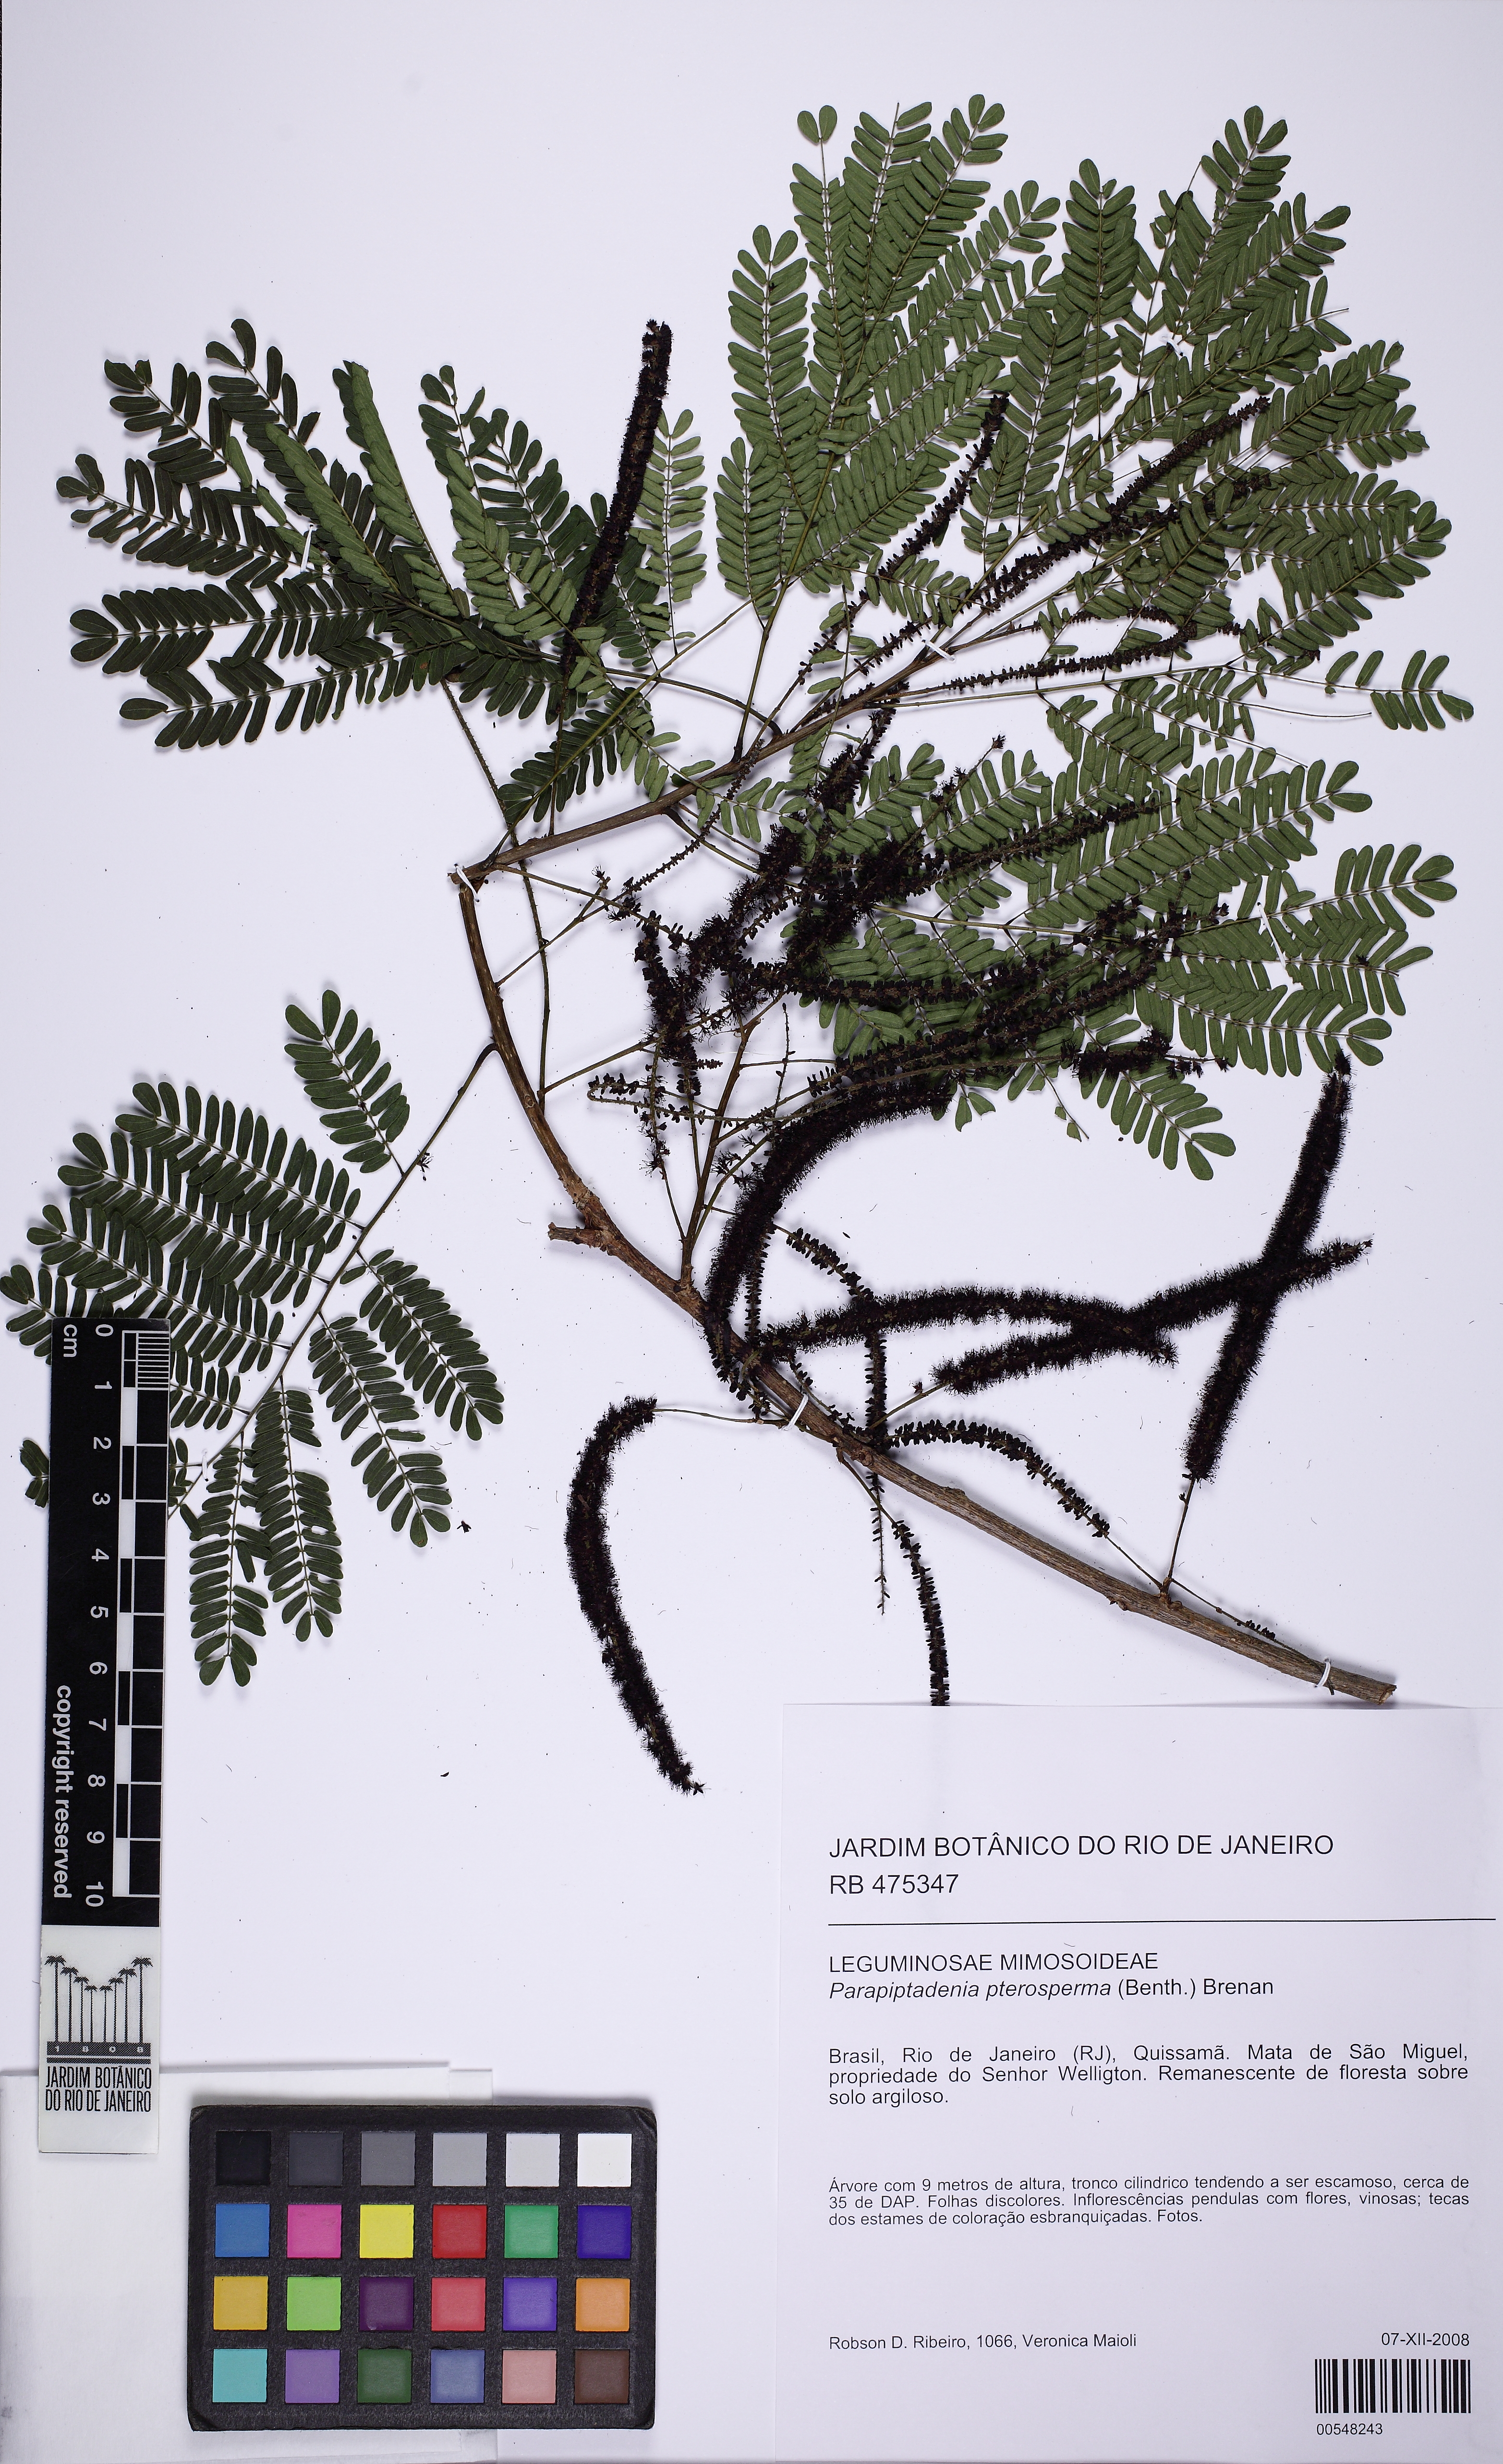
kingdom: Plantae
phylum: Tracheophyta
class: Magnoliopsida
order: Fabales
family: Fabaceae
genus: Parapiptadenia
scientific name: Parapiptadenia pterosperma
